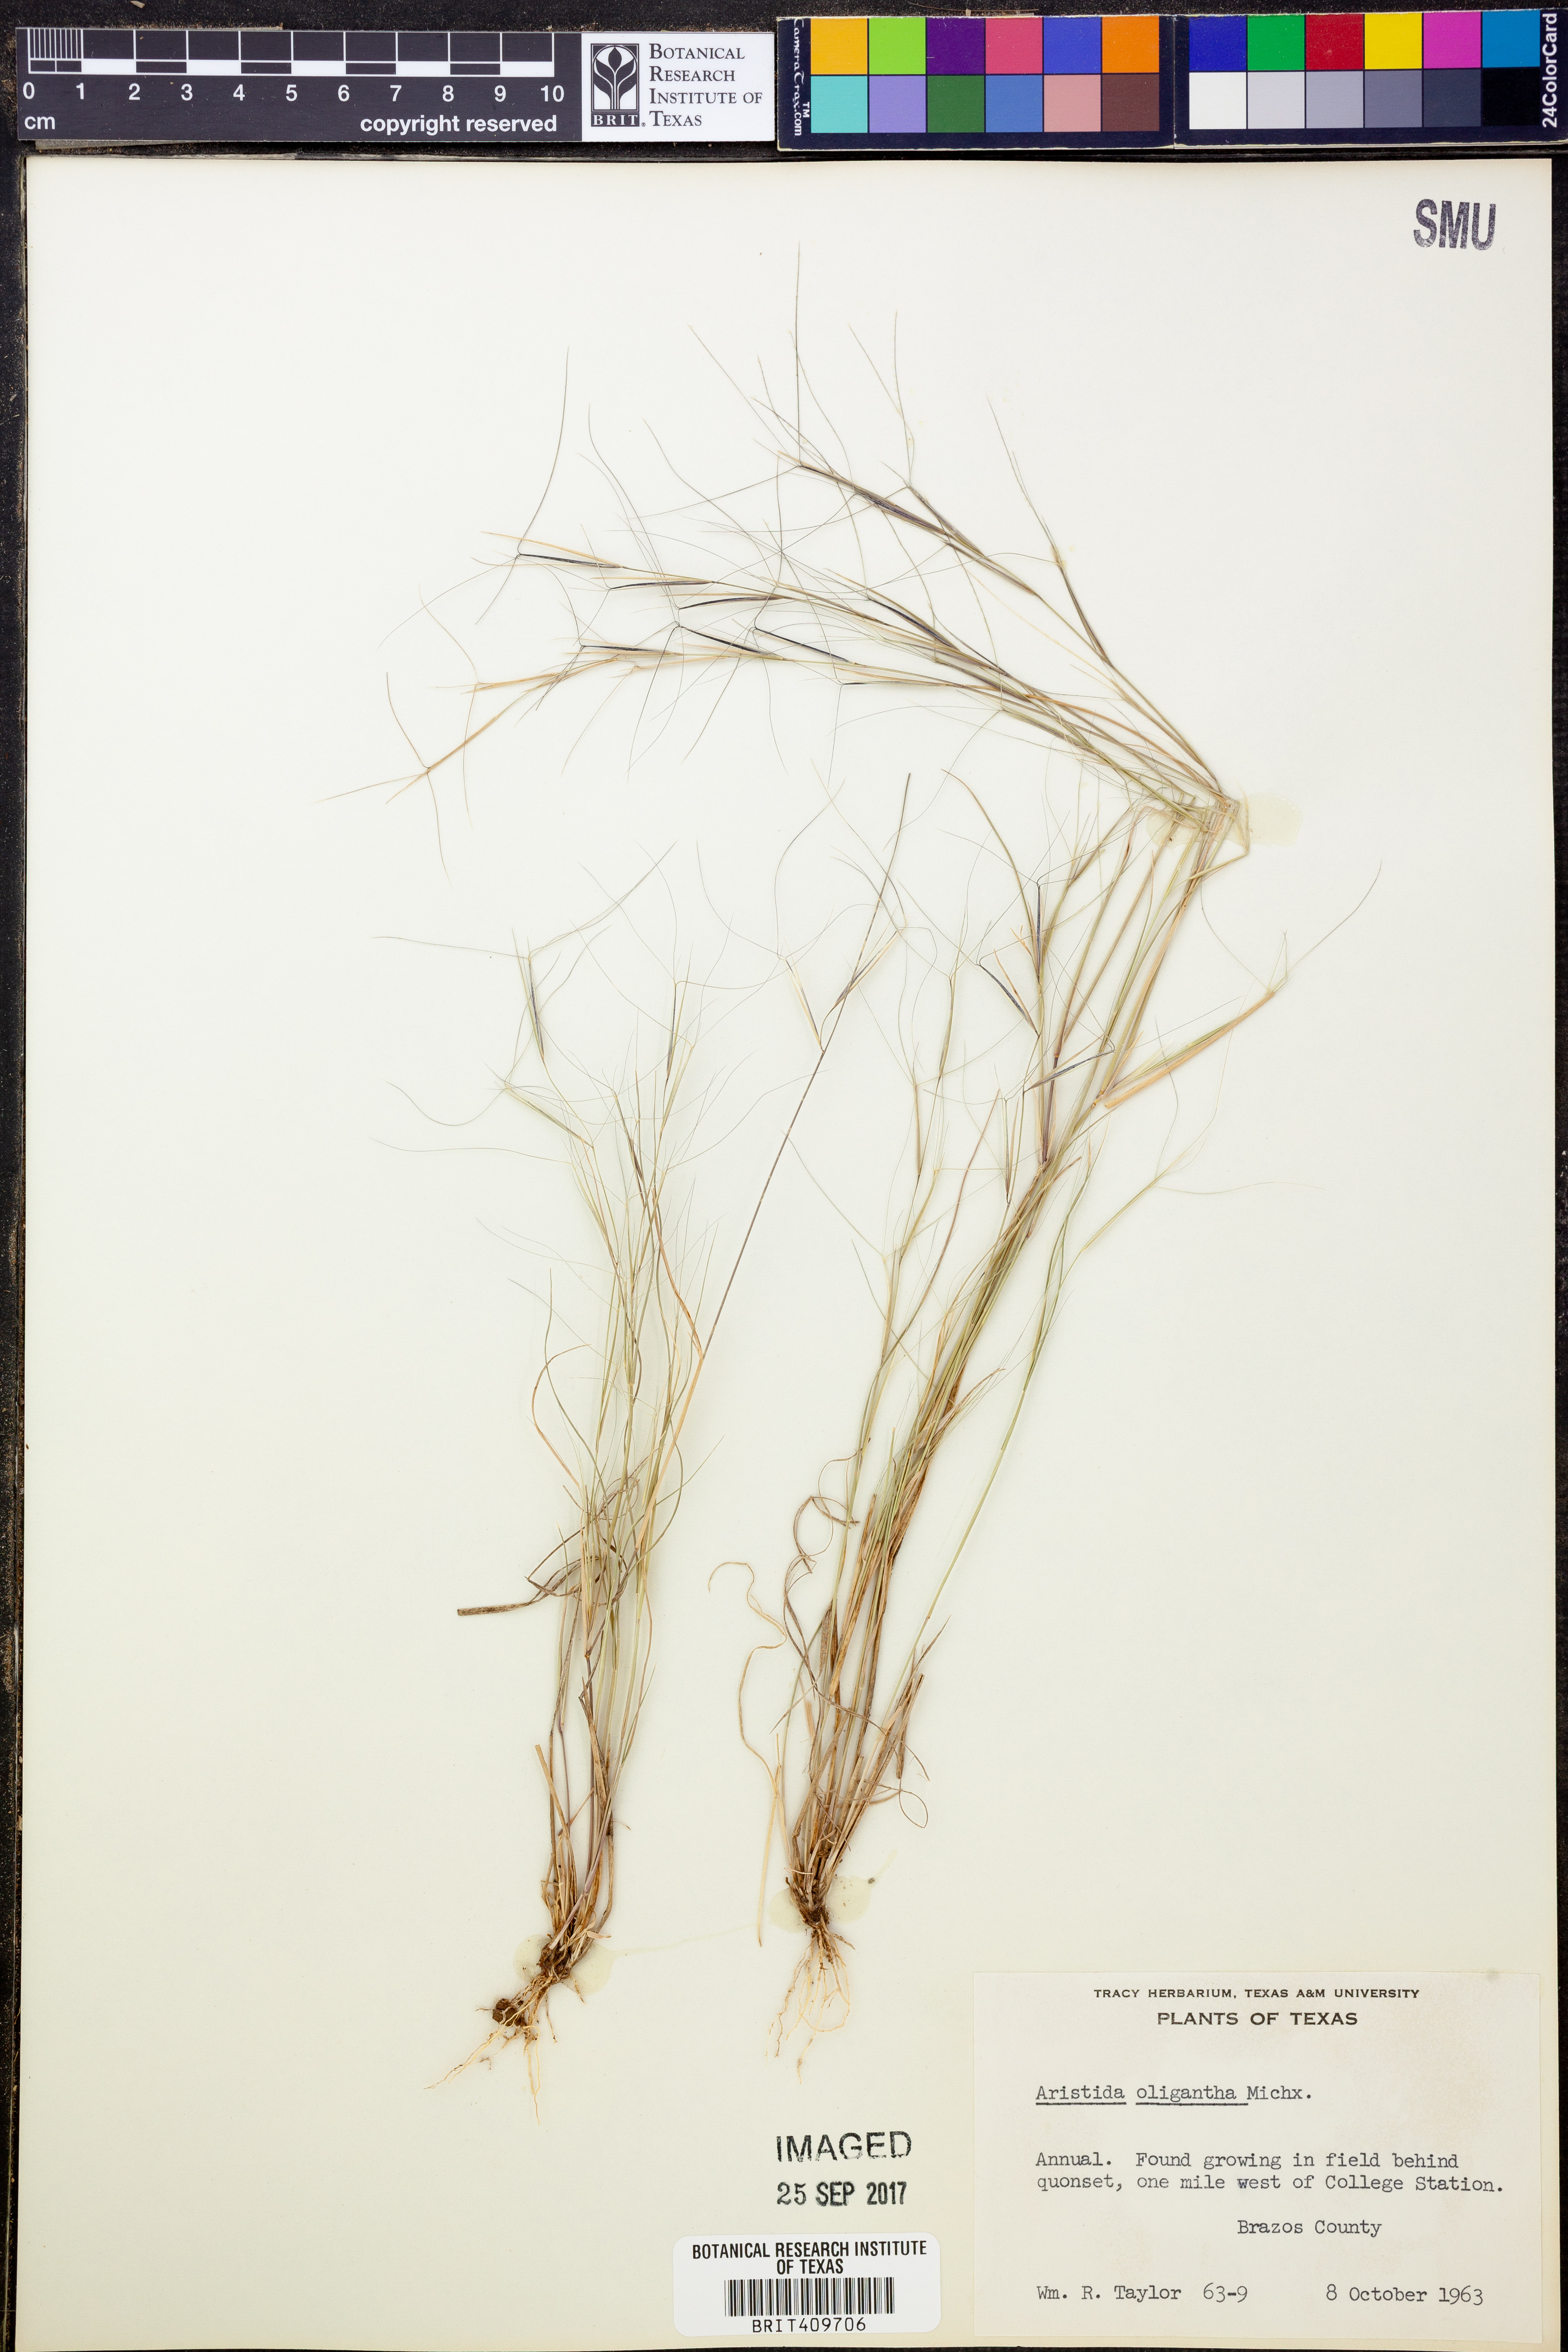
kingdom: Plantae
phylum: Tracheophyta
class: Liliopsida
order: Poales
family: Poaceae
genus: Aristida
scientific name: Aristida oligantha
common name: Few-flowered aristida
